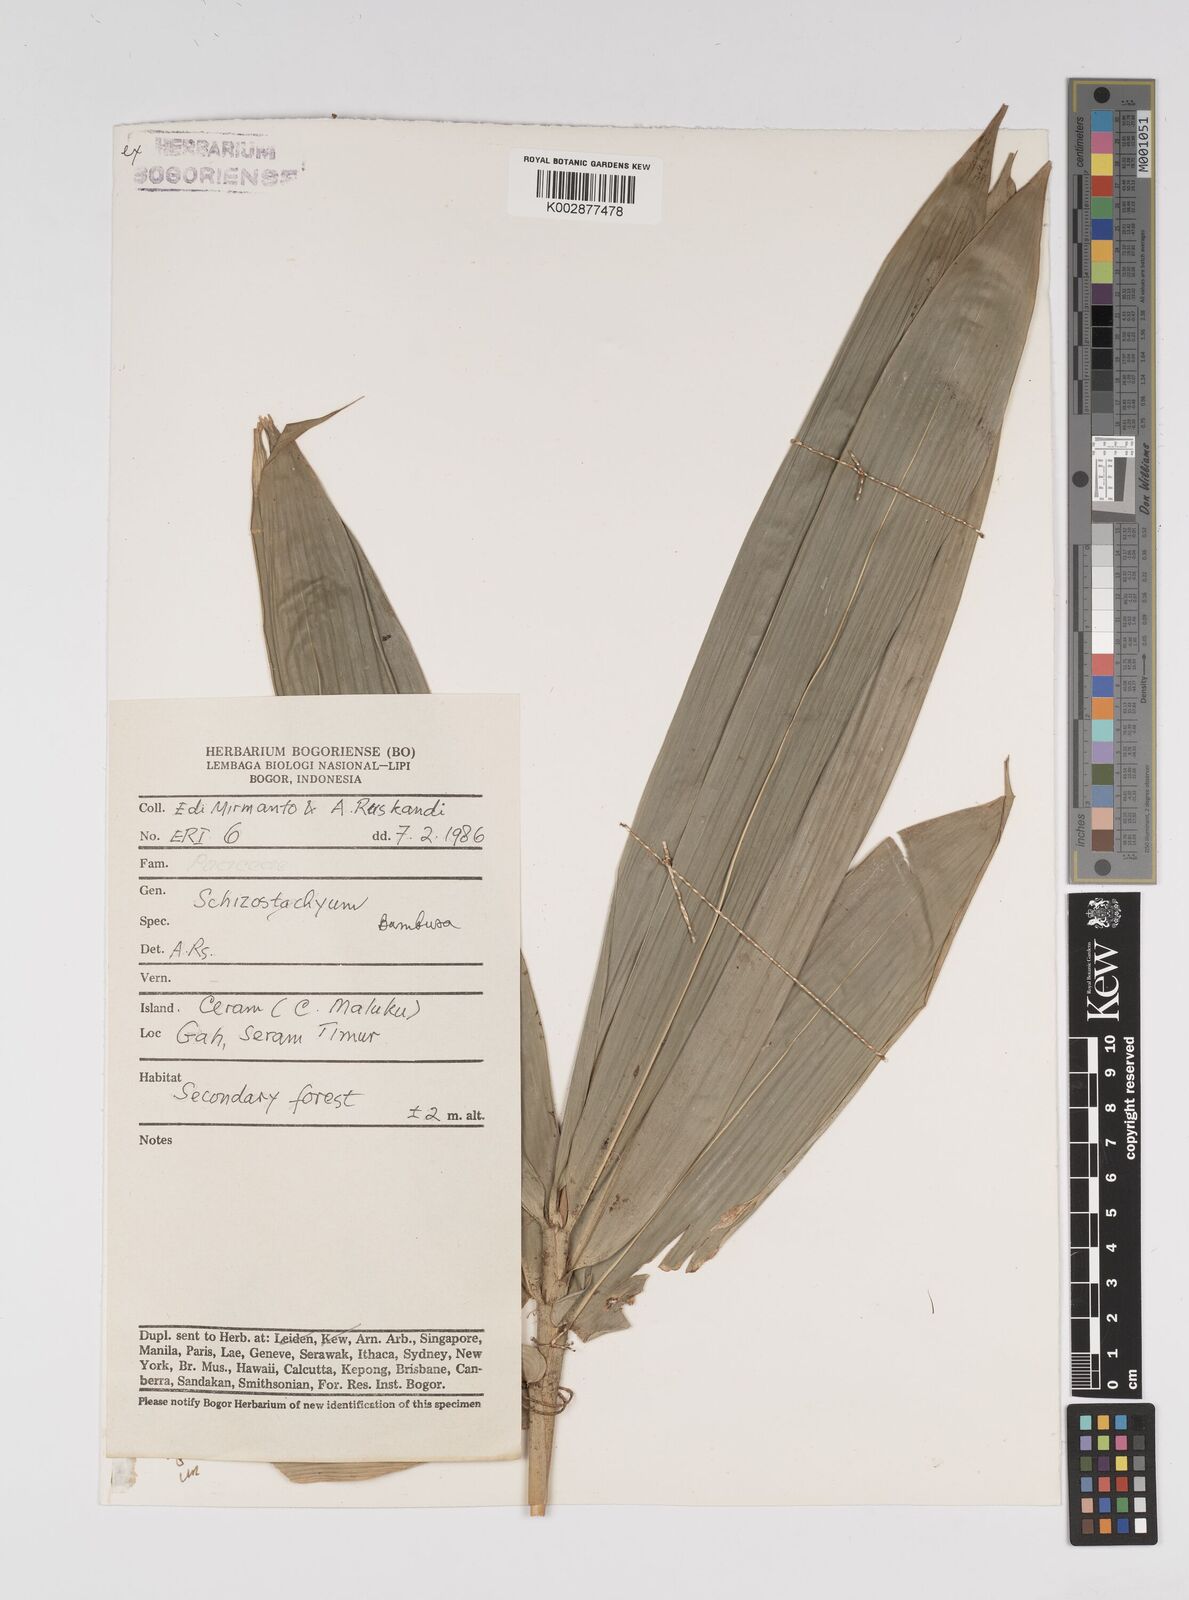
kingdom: Plantae
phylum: Tracheophyta
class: Liliopsida
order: Poales
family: Poaceae
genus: Bambusa
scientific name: Bambusa
